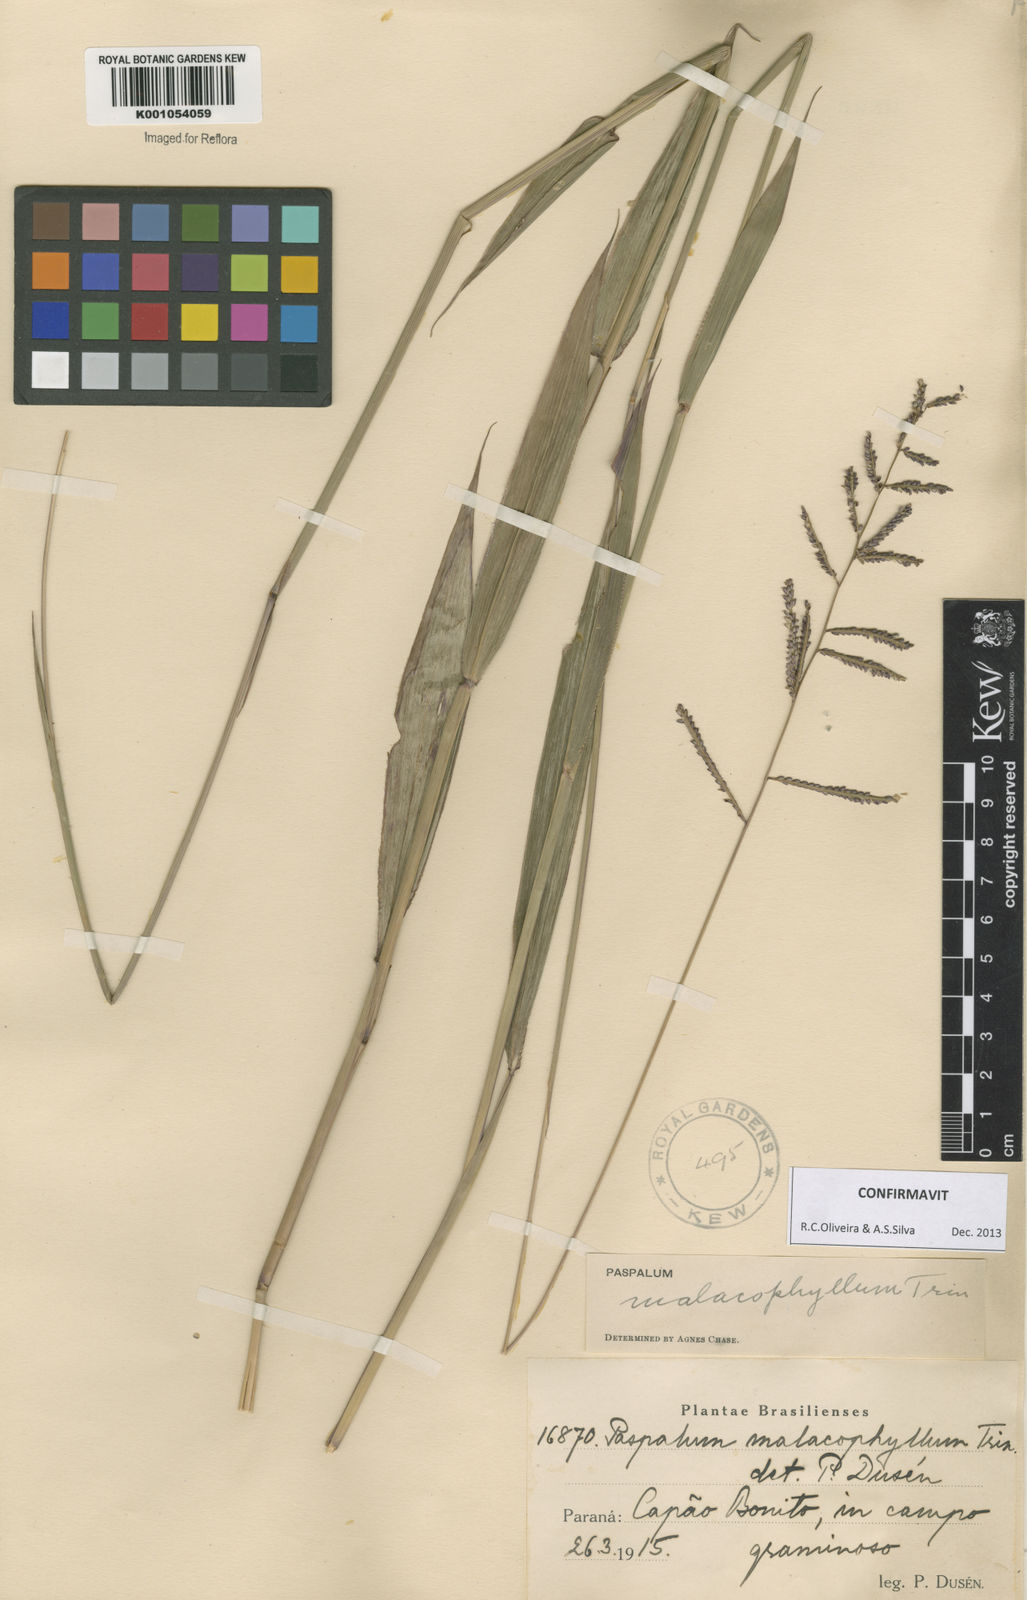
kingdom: Plantae
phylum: Tracheophyta
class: Liliopsida
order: Poales
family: Poaceae
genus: Paspalum
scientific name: Paspalum malacophyllum
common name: Ribbed paspalum
